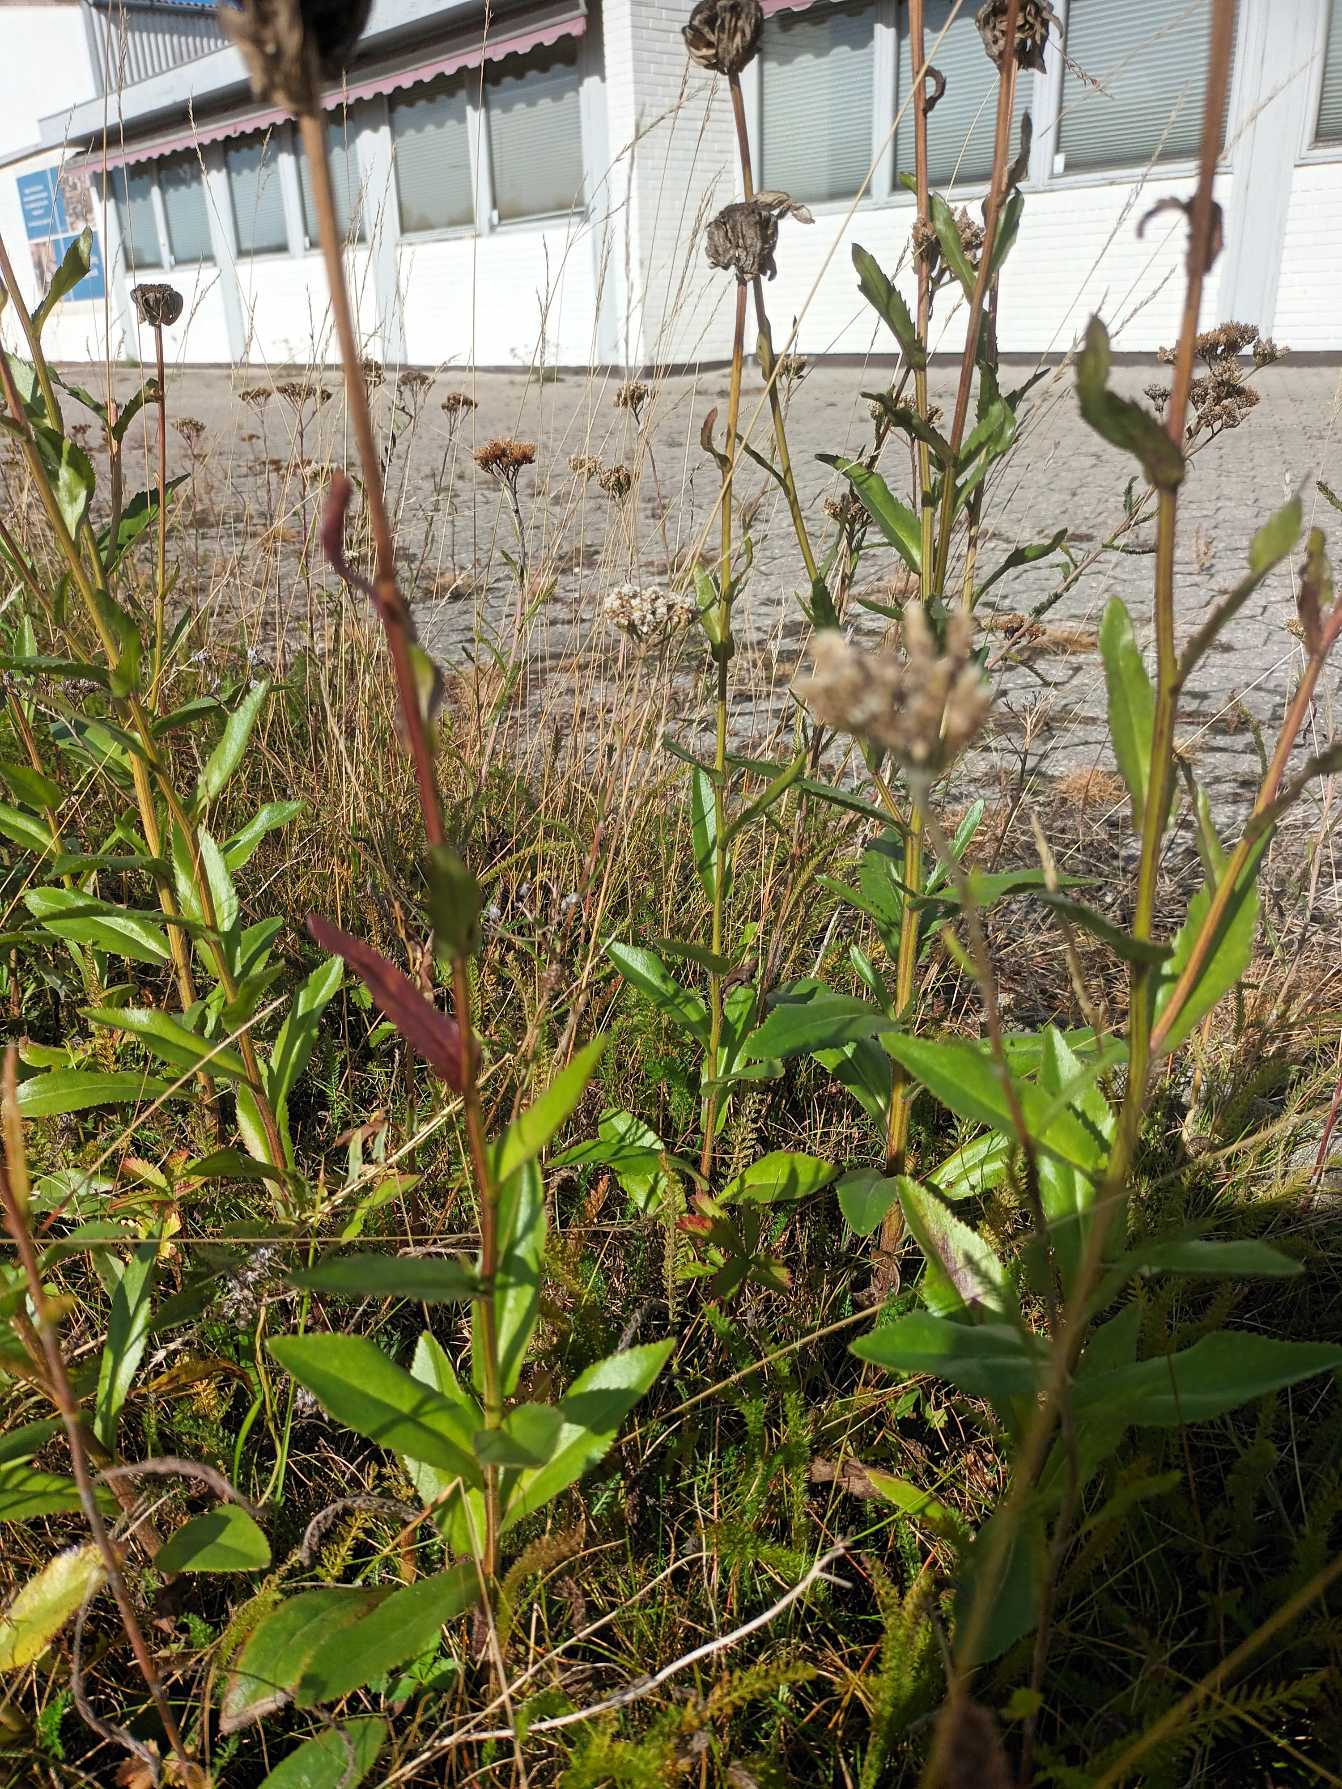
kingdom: Plantae
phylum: Tracheophyta
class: Magnoliopsida
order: Asterales
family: Asteraceae
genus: Leucanthemum
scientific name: Leucanthemum superbum
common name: Kæmpe-margerit
